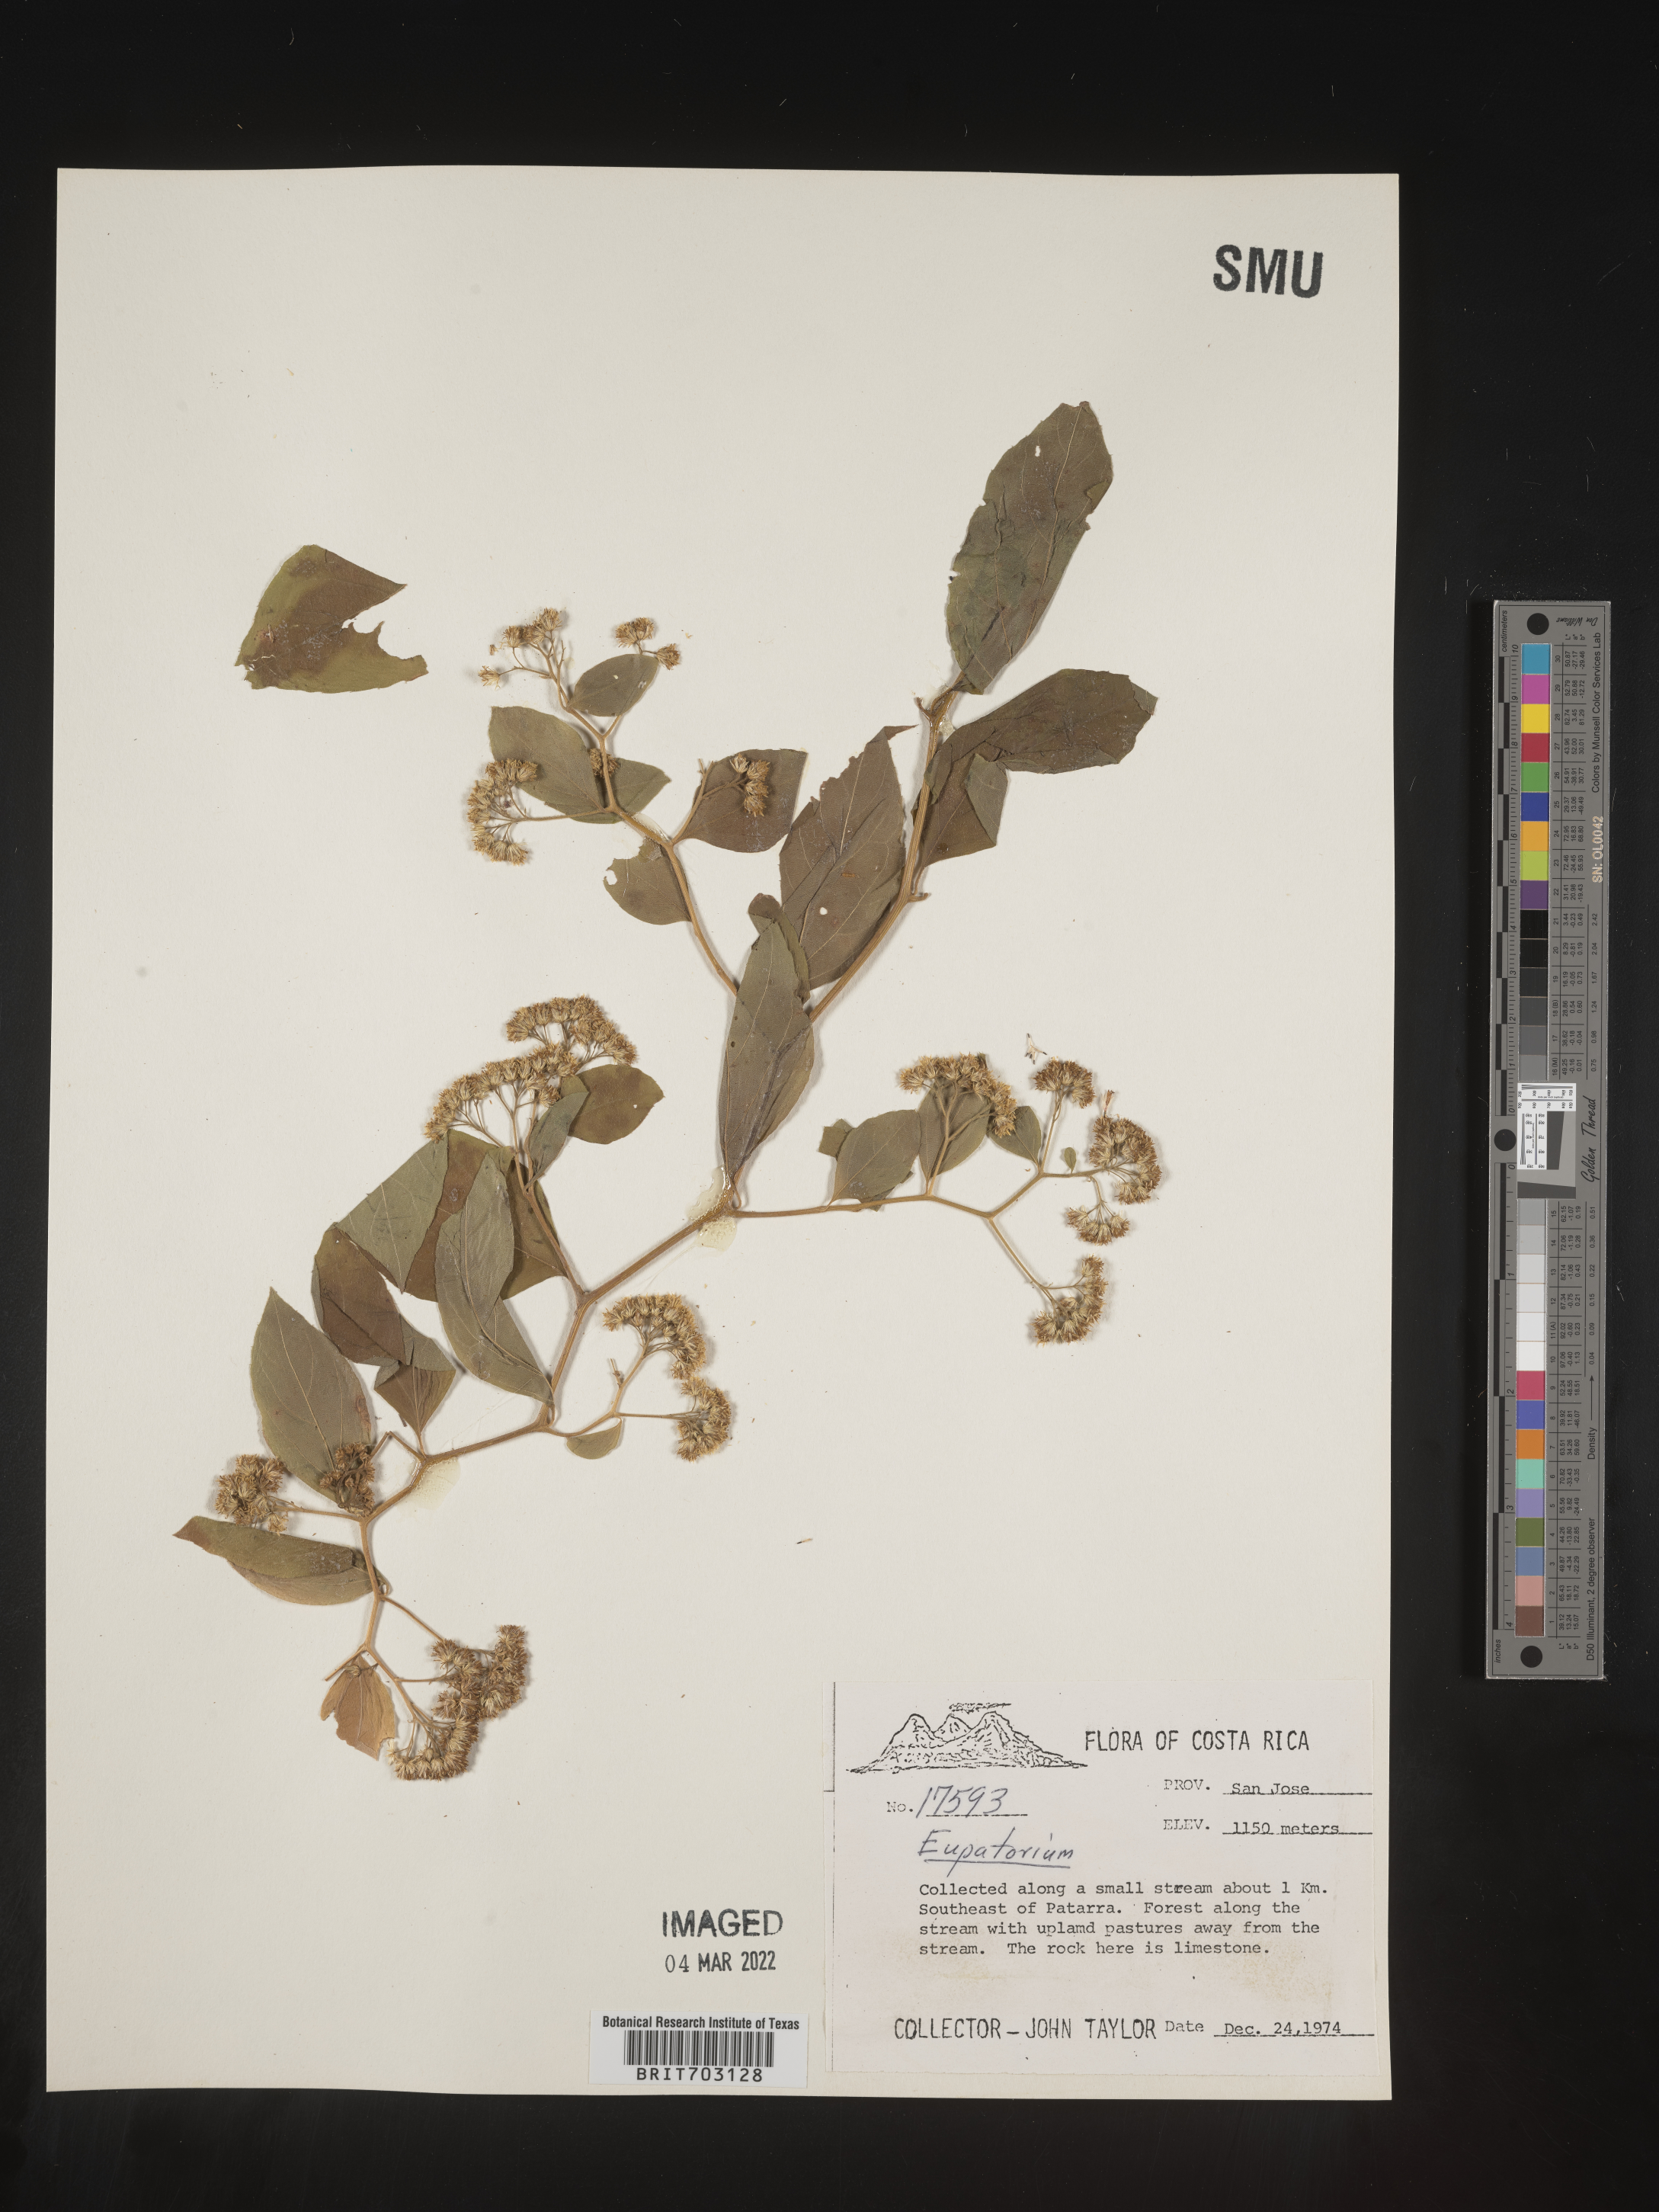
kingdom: Plantae
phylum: Tracheophyta
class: Magnoliopsida
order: Asterales
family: Asteraceae
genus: Eupatorium
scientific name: Eupatorium
